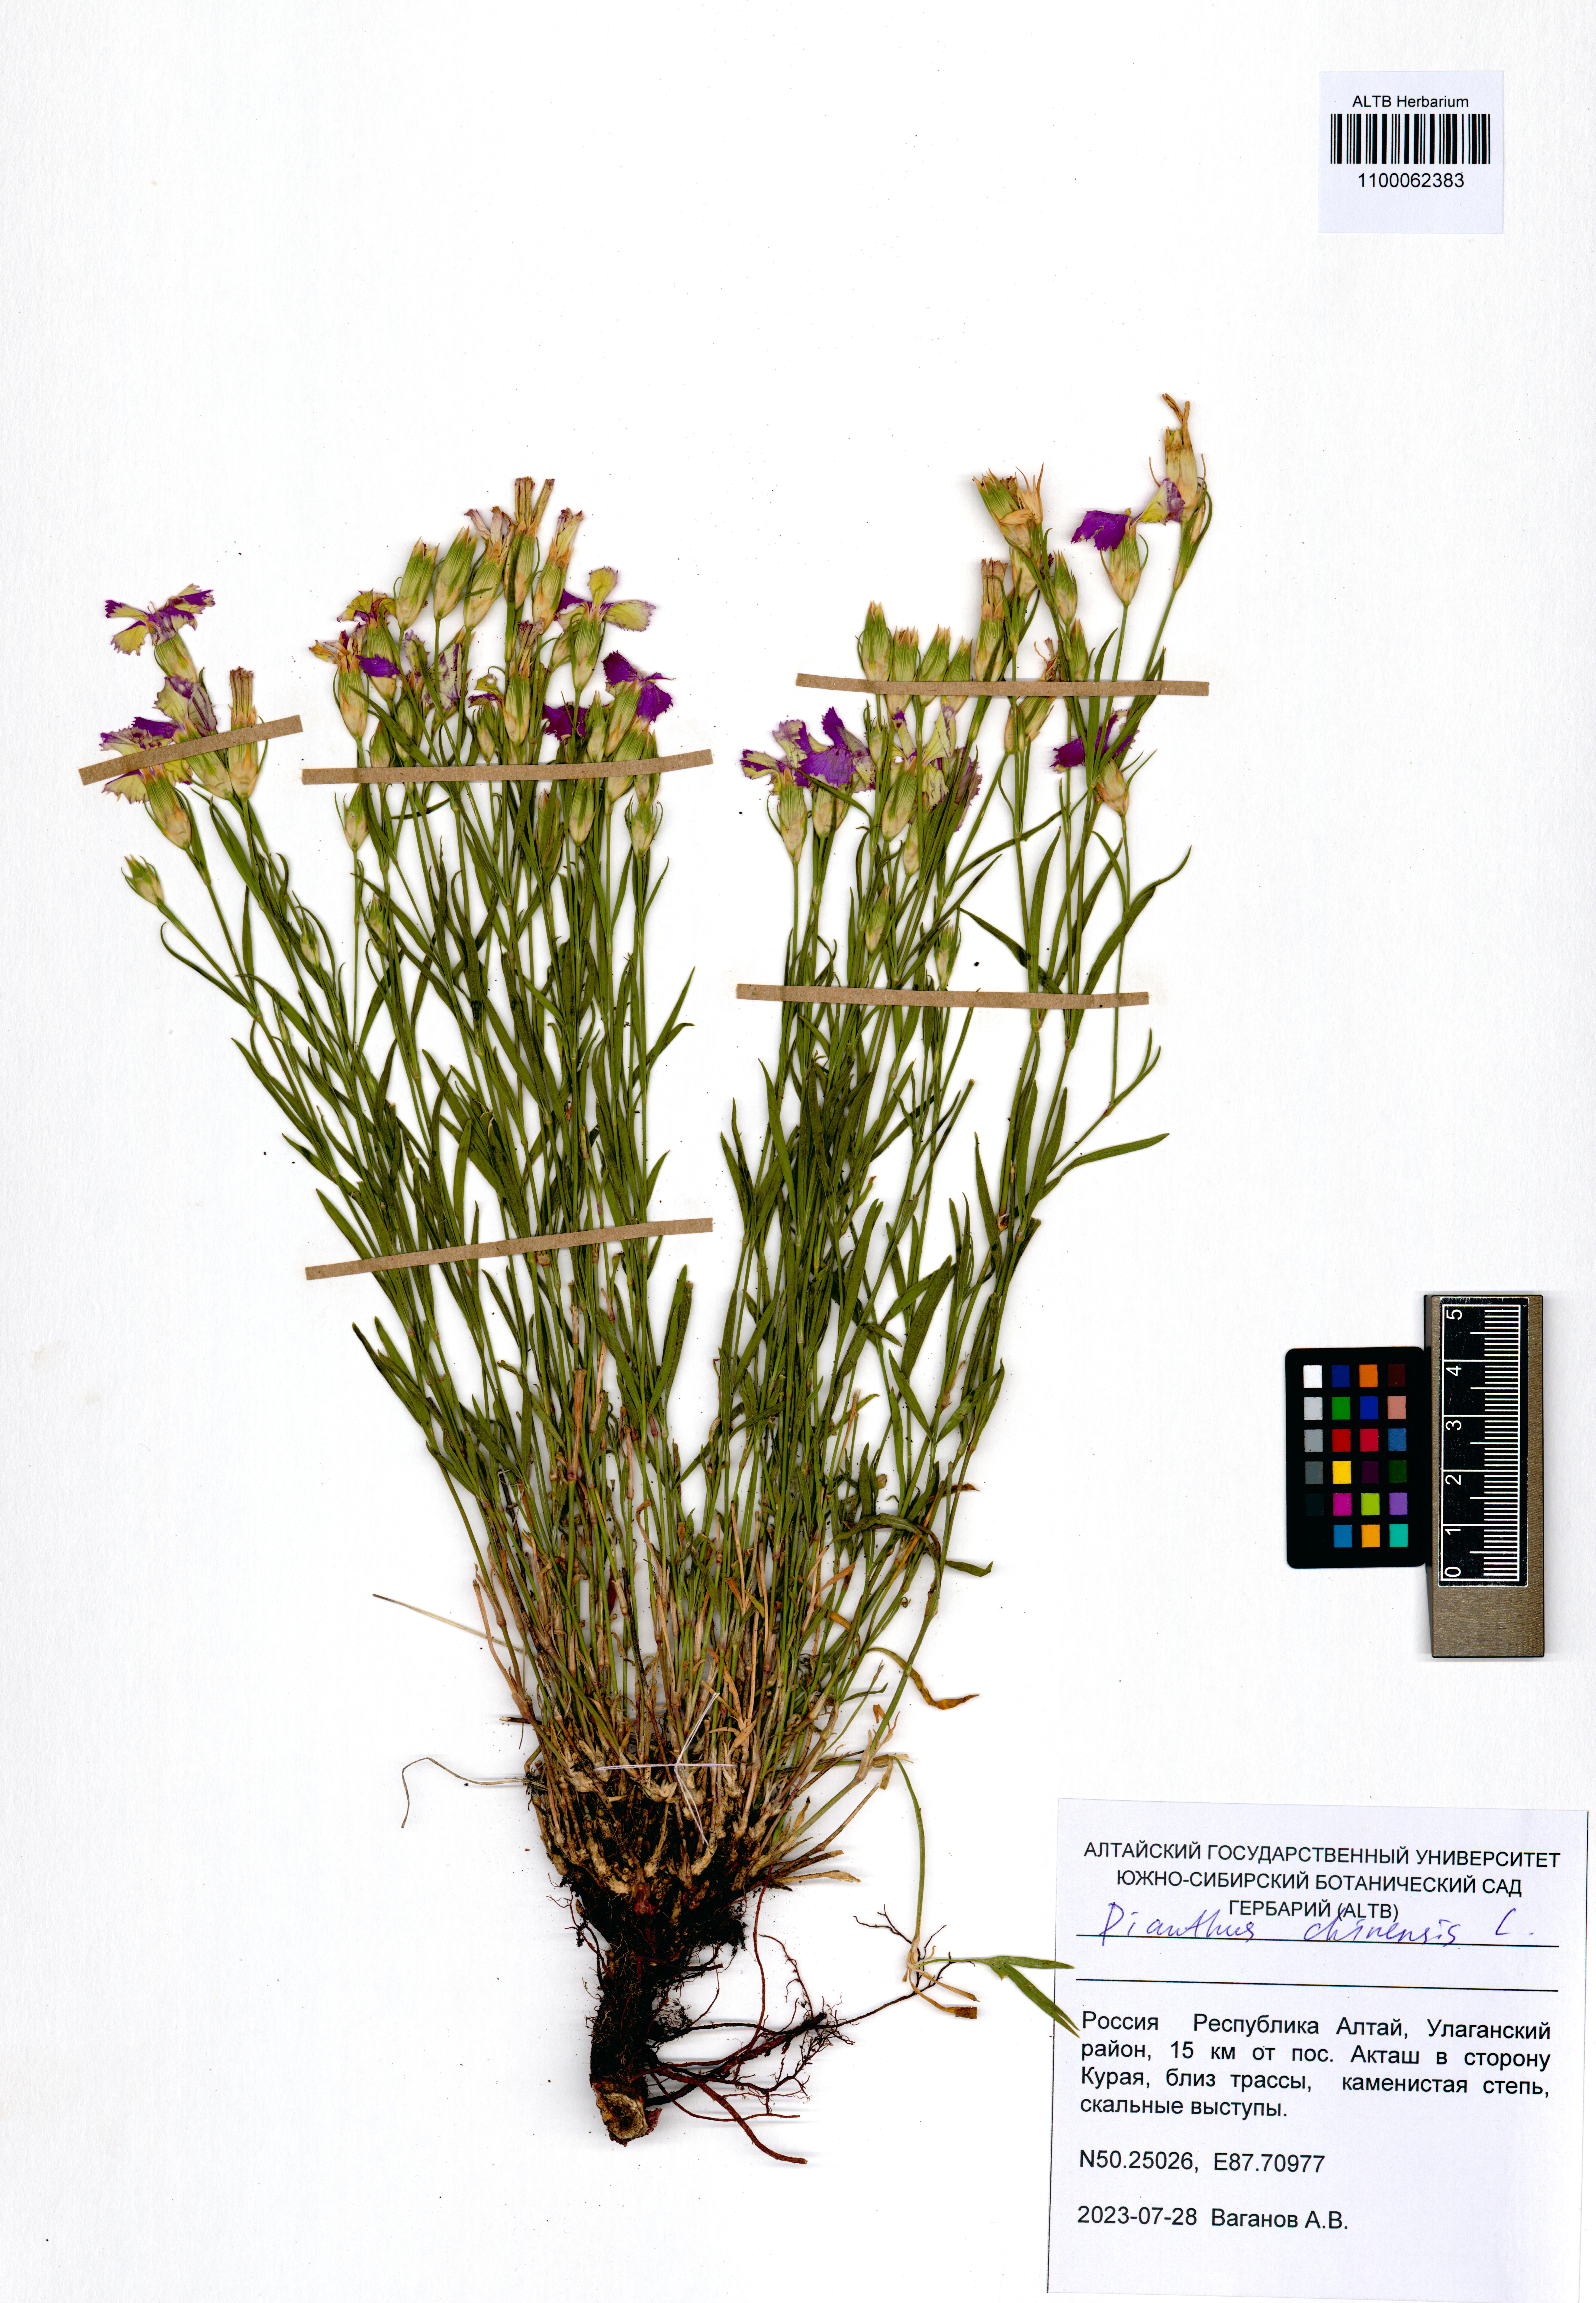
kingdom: Plantae
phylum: Tracheophyta
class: Magnoliopsida
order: Caryophyllales
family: Caryophyllaceae
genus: Dianthus
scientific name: Dianthus chinensis
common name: Rainbow pink
